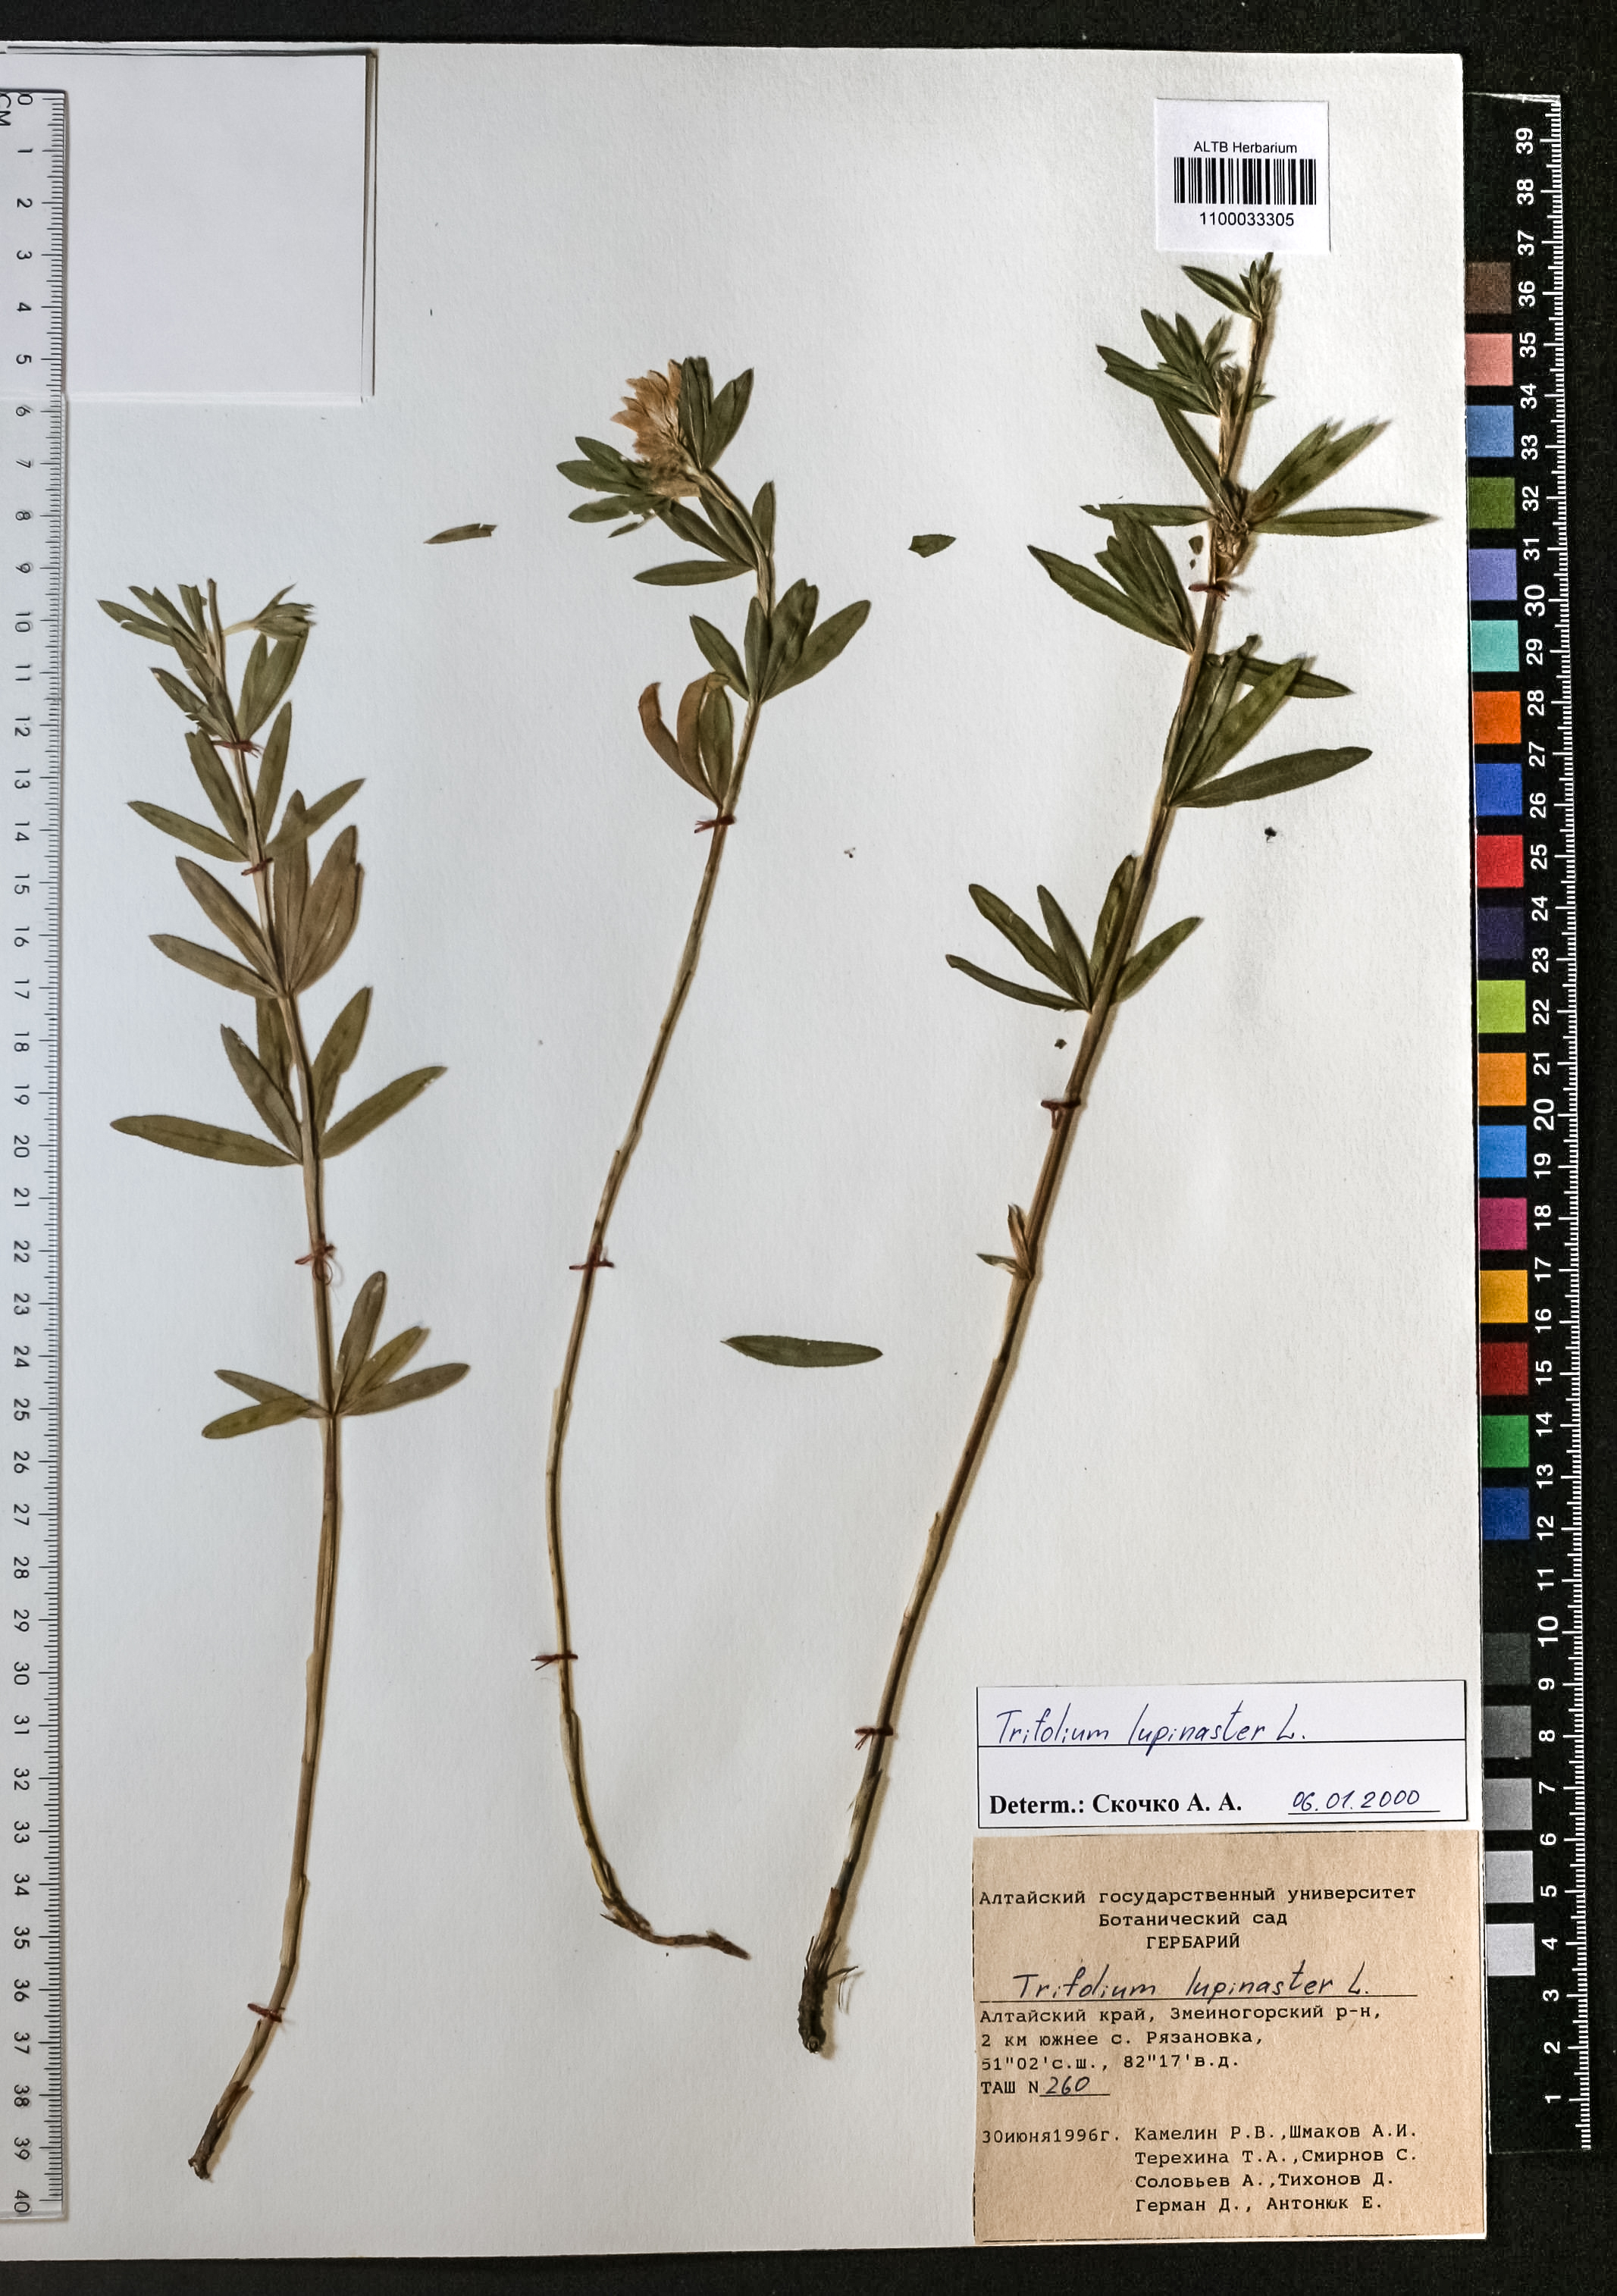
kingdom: Plantae
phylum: Tracheophyta
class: Magnoliopsida
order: Fabales
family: Fabaceae
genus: Trifolium
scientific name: Trifolium lupinaster
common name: Lupine clover
